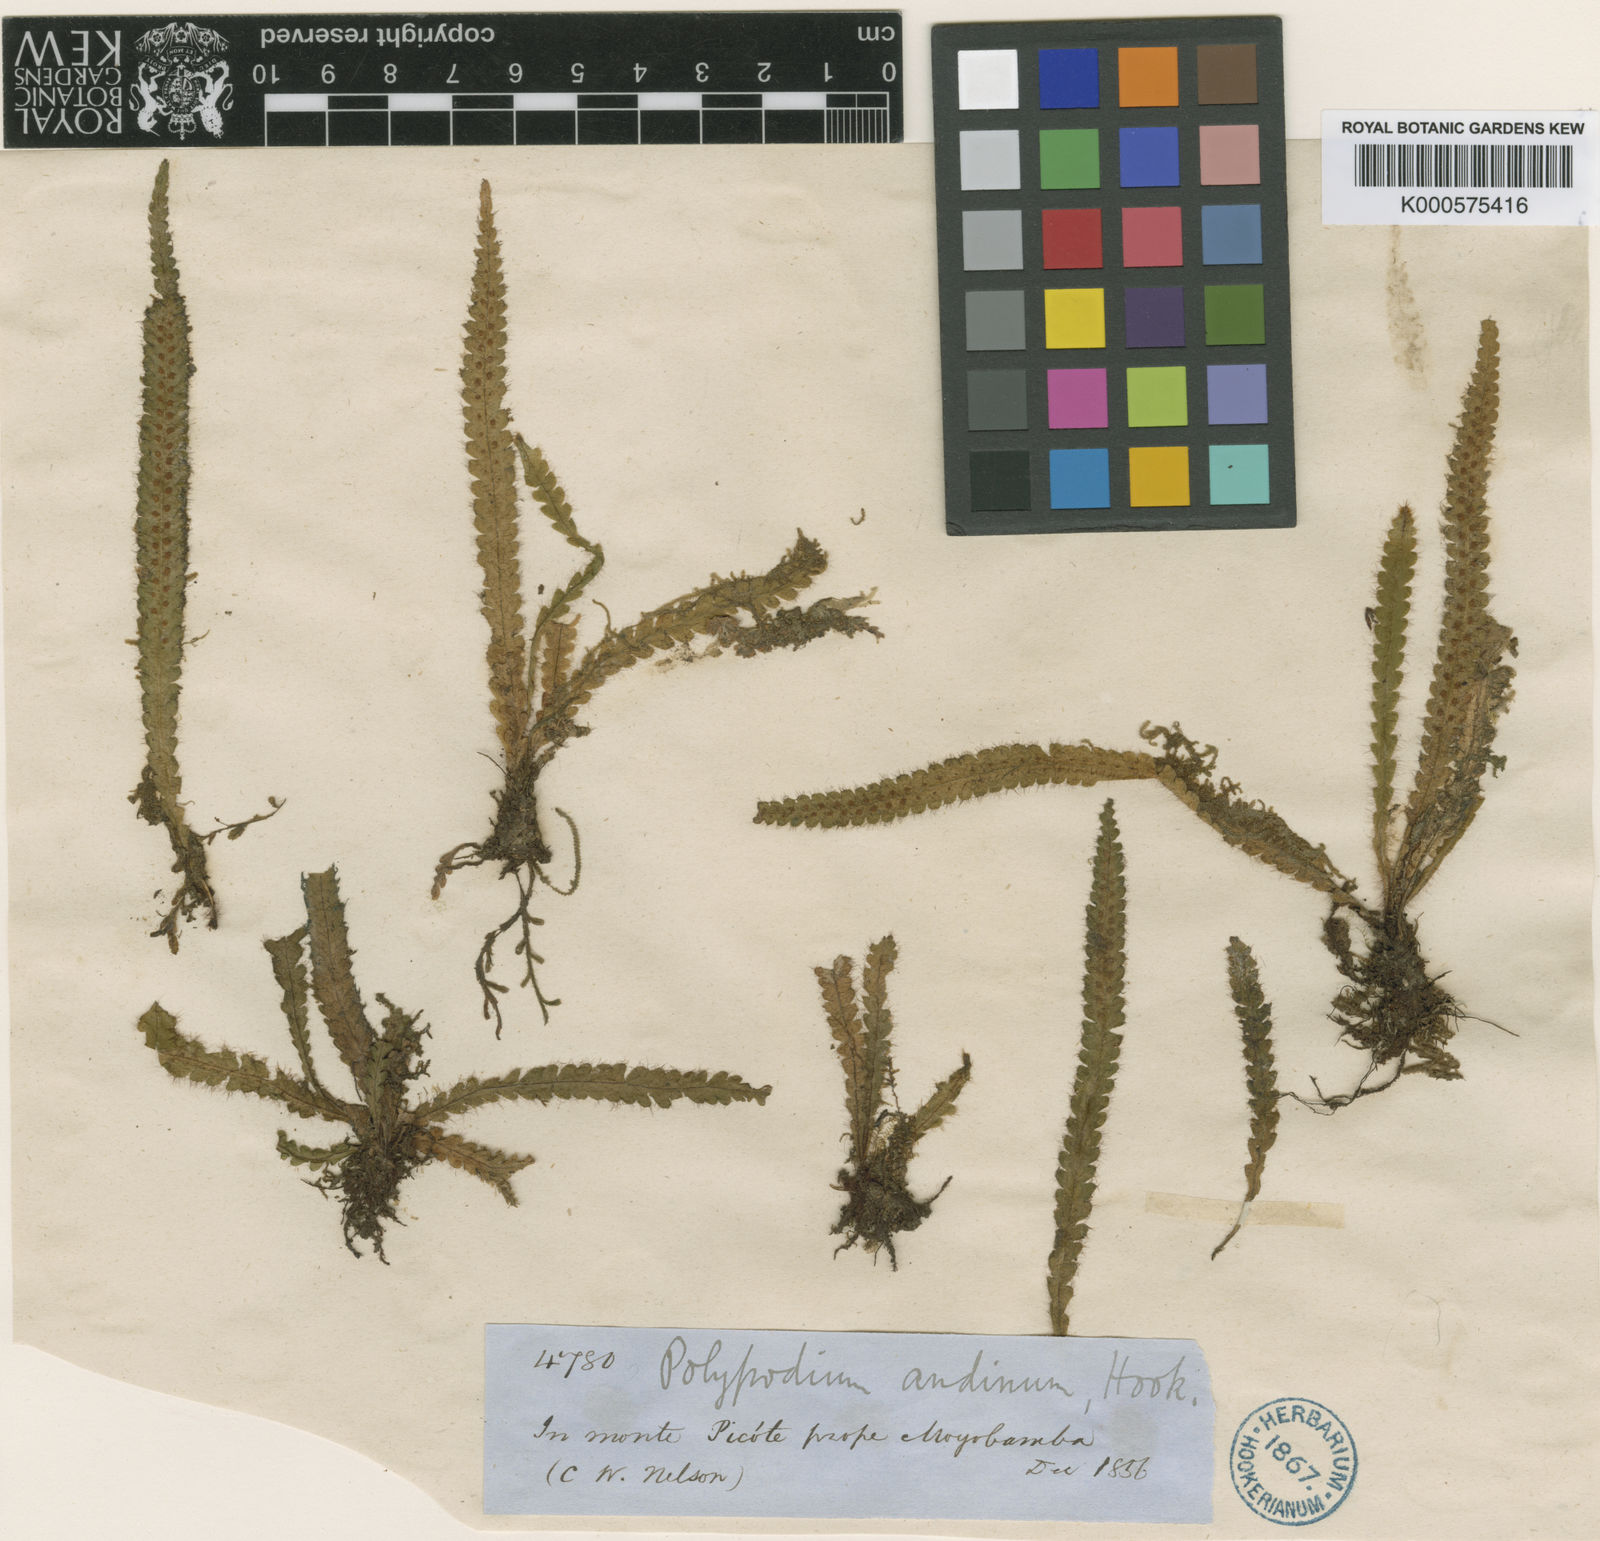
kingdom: Plantae
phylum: Tracheophyta
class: Polypodiopsida
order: Polypodiales
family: Polypodiaceae
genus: Moranopteris
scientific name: Moranopteris truncicola
